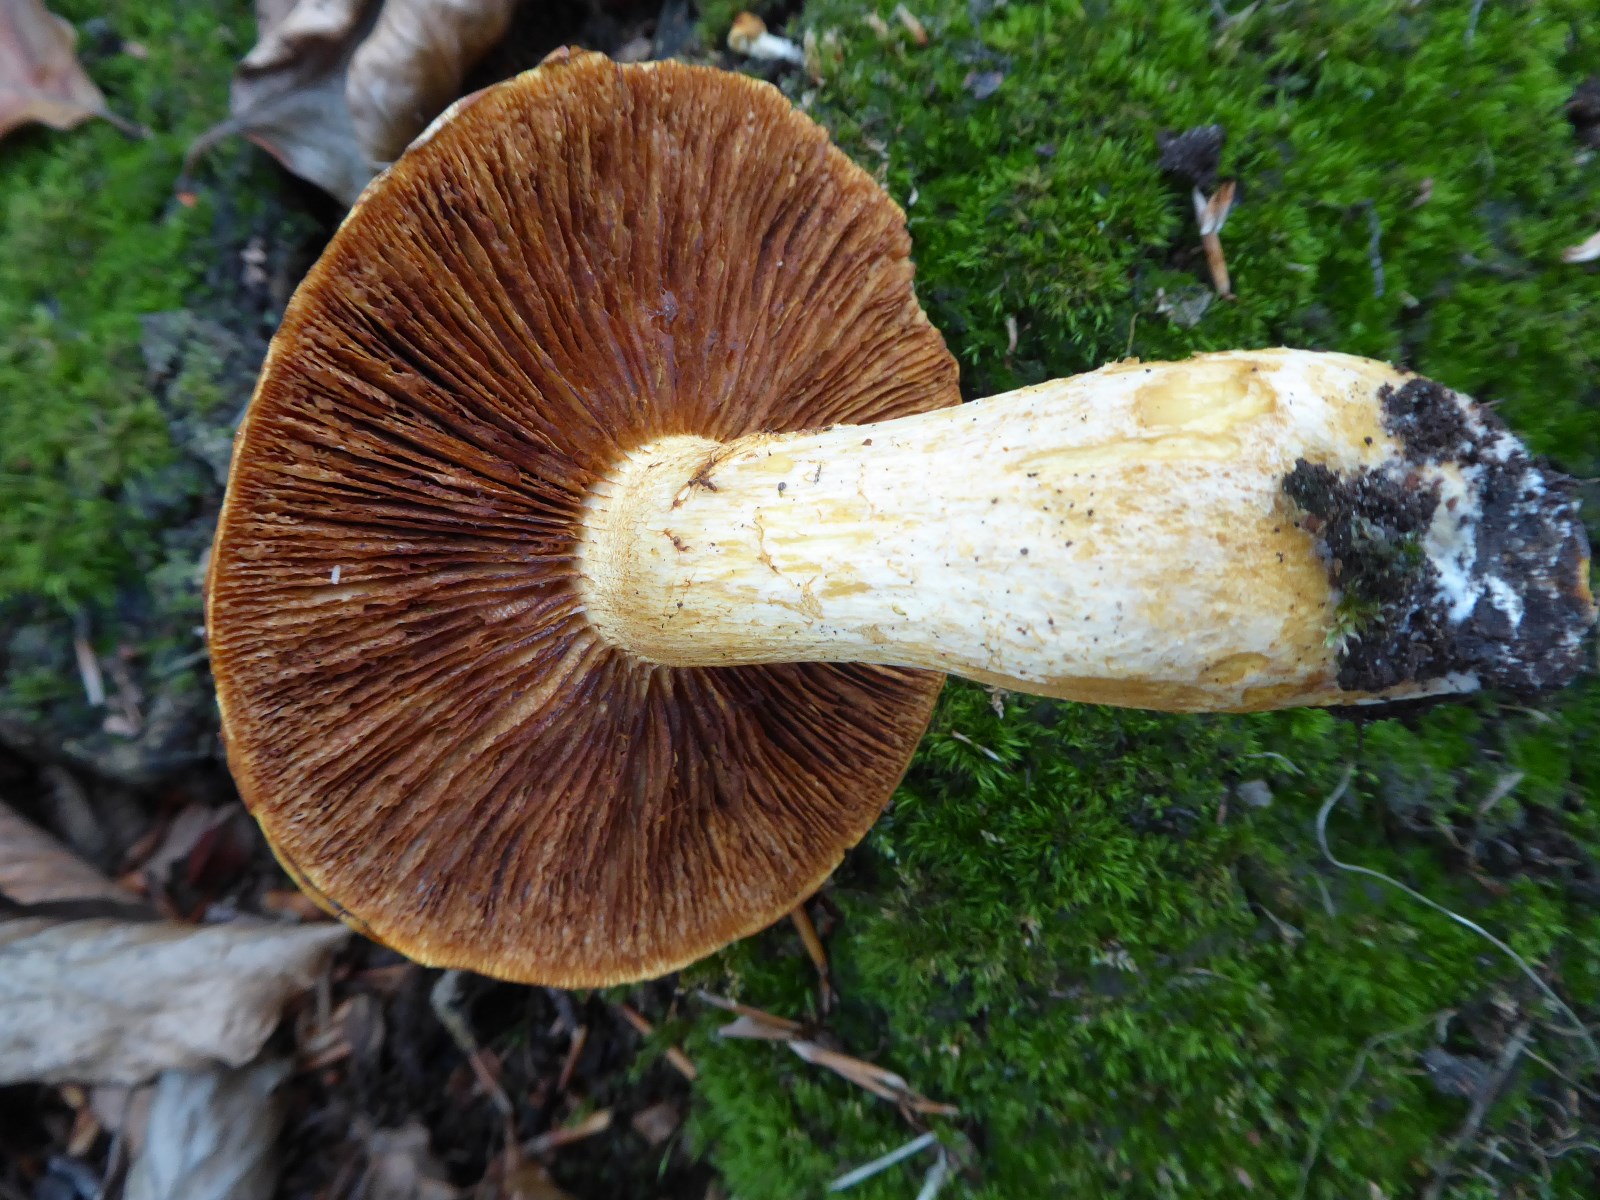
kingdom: Fungi
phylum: Basidiomycota
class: Agaricomycetes
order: Agaricales
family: Hymenogastraceae
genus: Gymnopilus
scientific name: Gymnopilus spectabilis
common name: fibret flammehat
